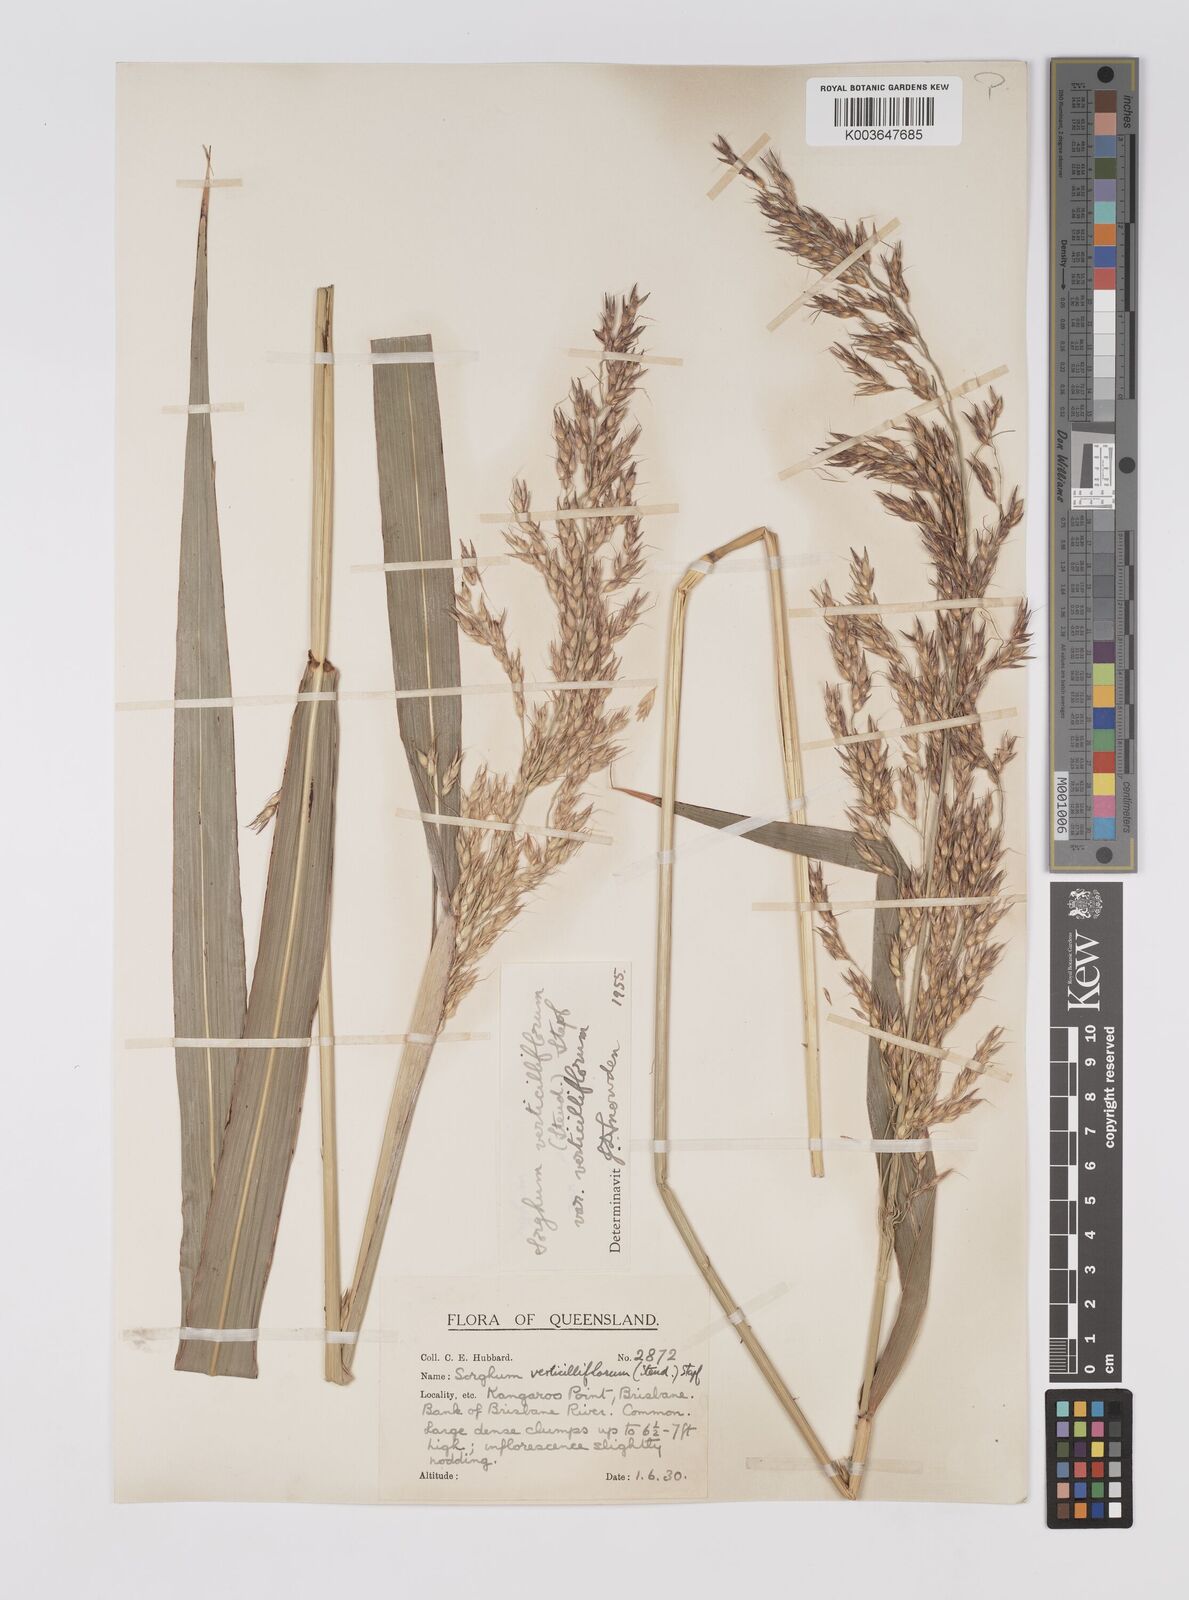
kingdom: Plantae
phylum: Tracheophyta
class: Liliopsida
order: Poales
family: Poaceae
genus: Sorghum
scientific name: Sorghum arundinaceum
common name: Sorghum
